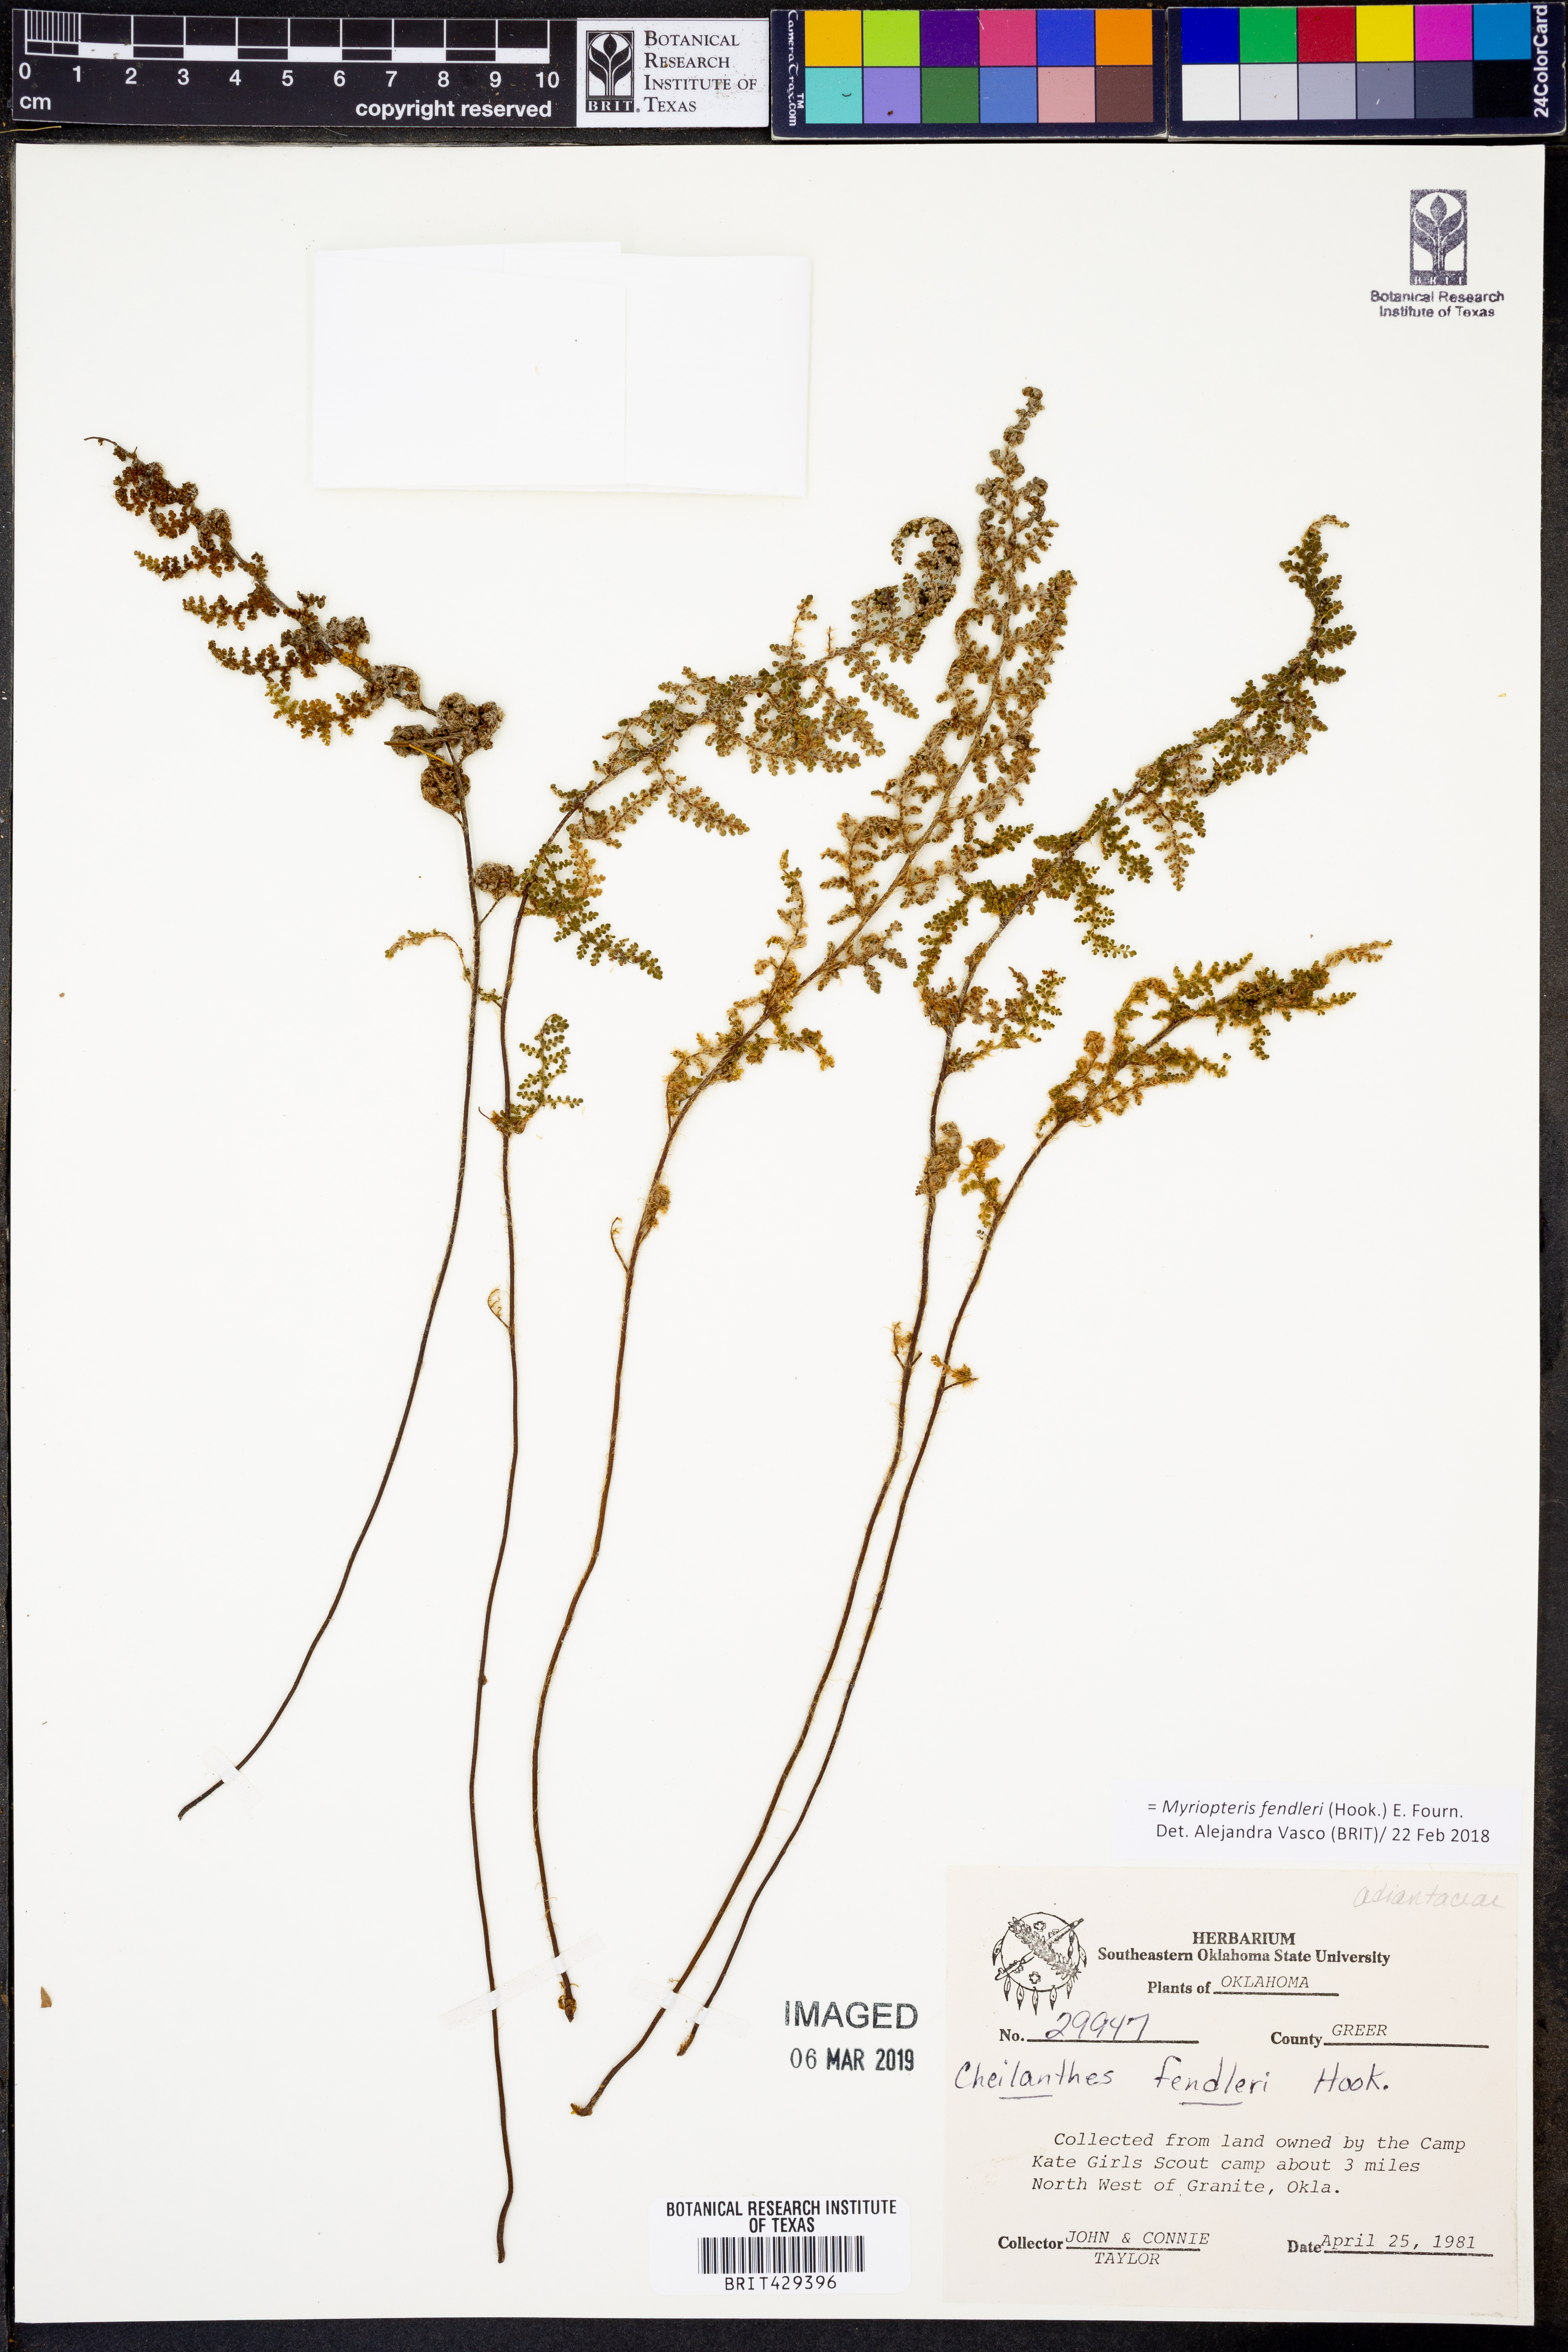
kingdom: Plantae
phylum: Tracheophyta
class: Polypodiopsida
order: Polypodiales
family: Pteridaceae
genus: Myriopteris
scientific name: Myriopteris fendleri
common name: Fendler's lip fern
